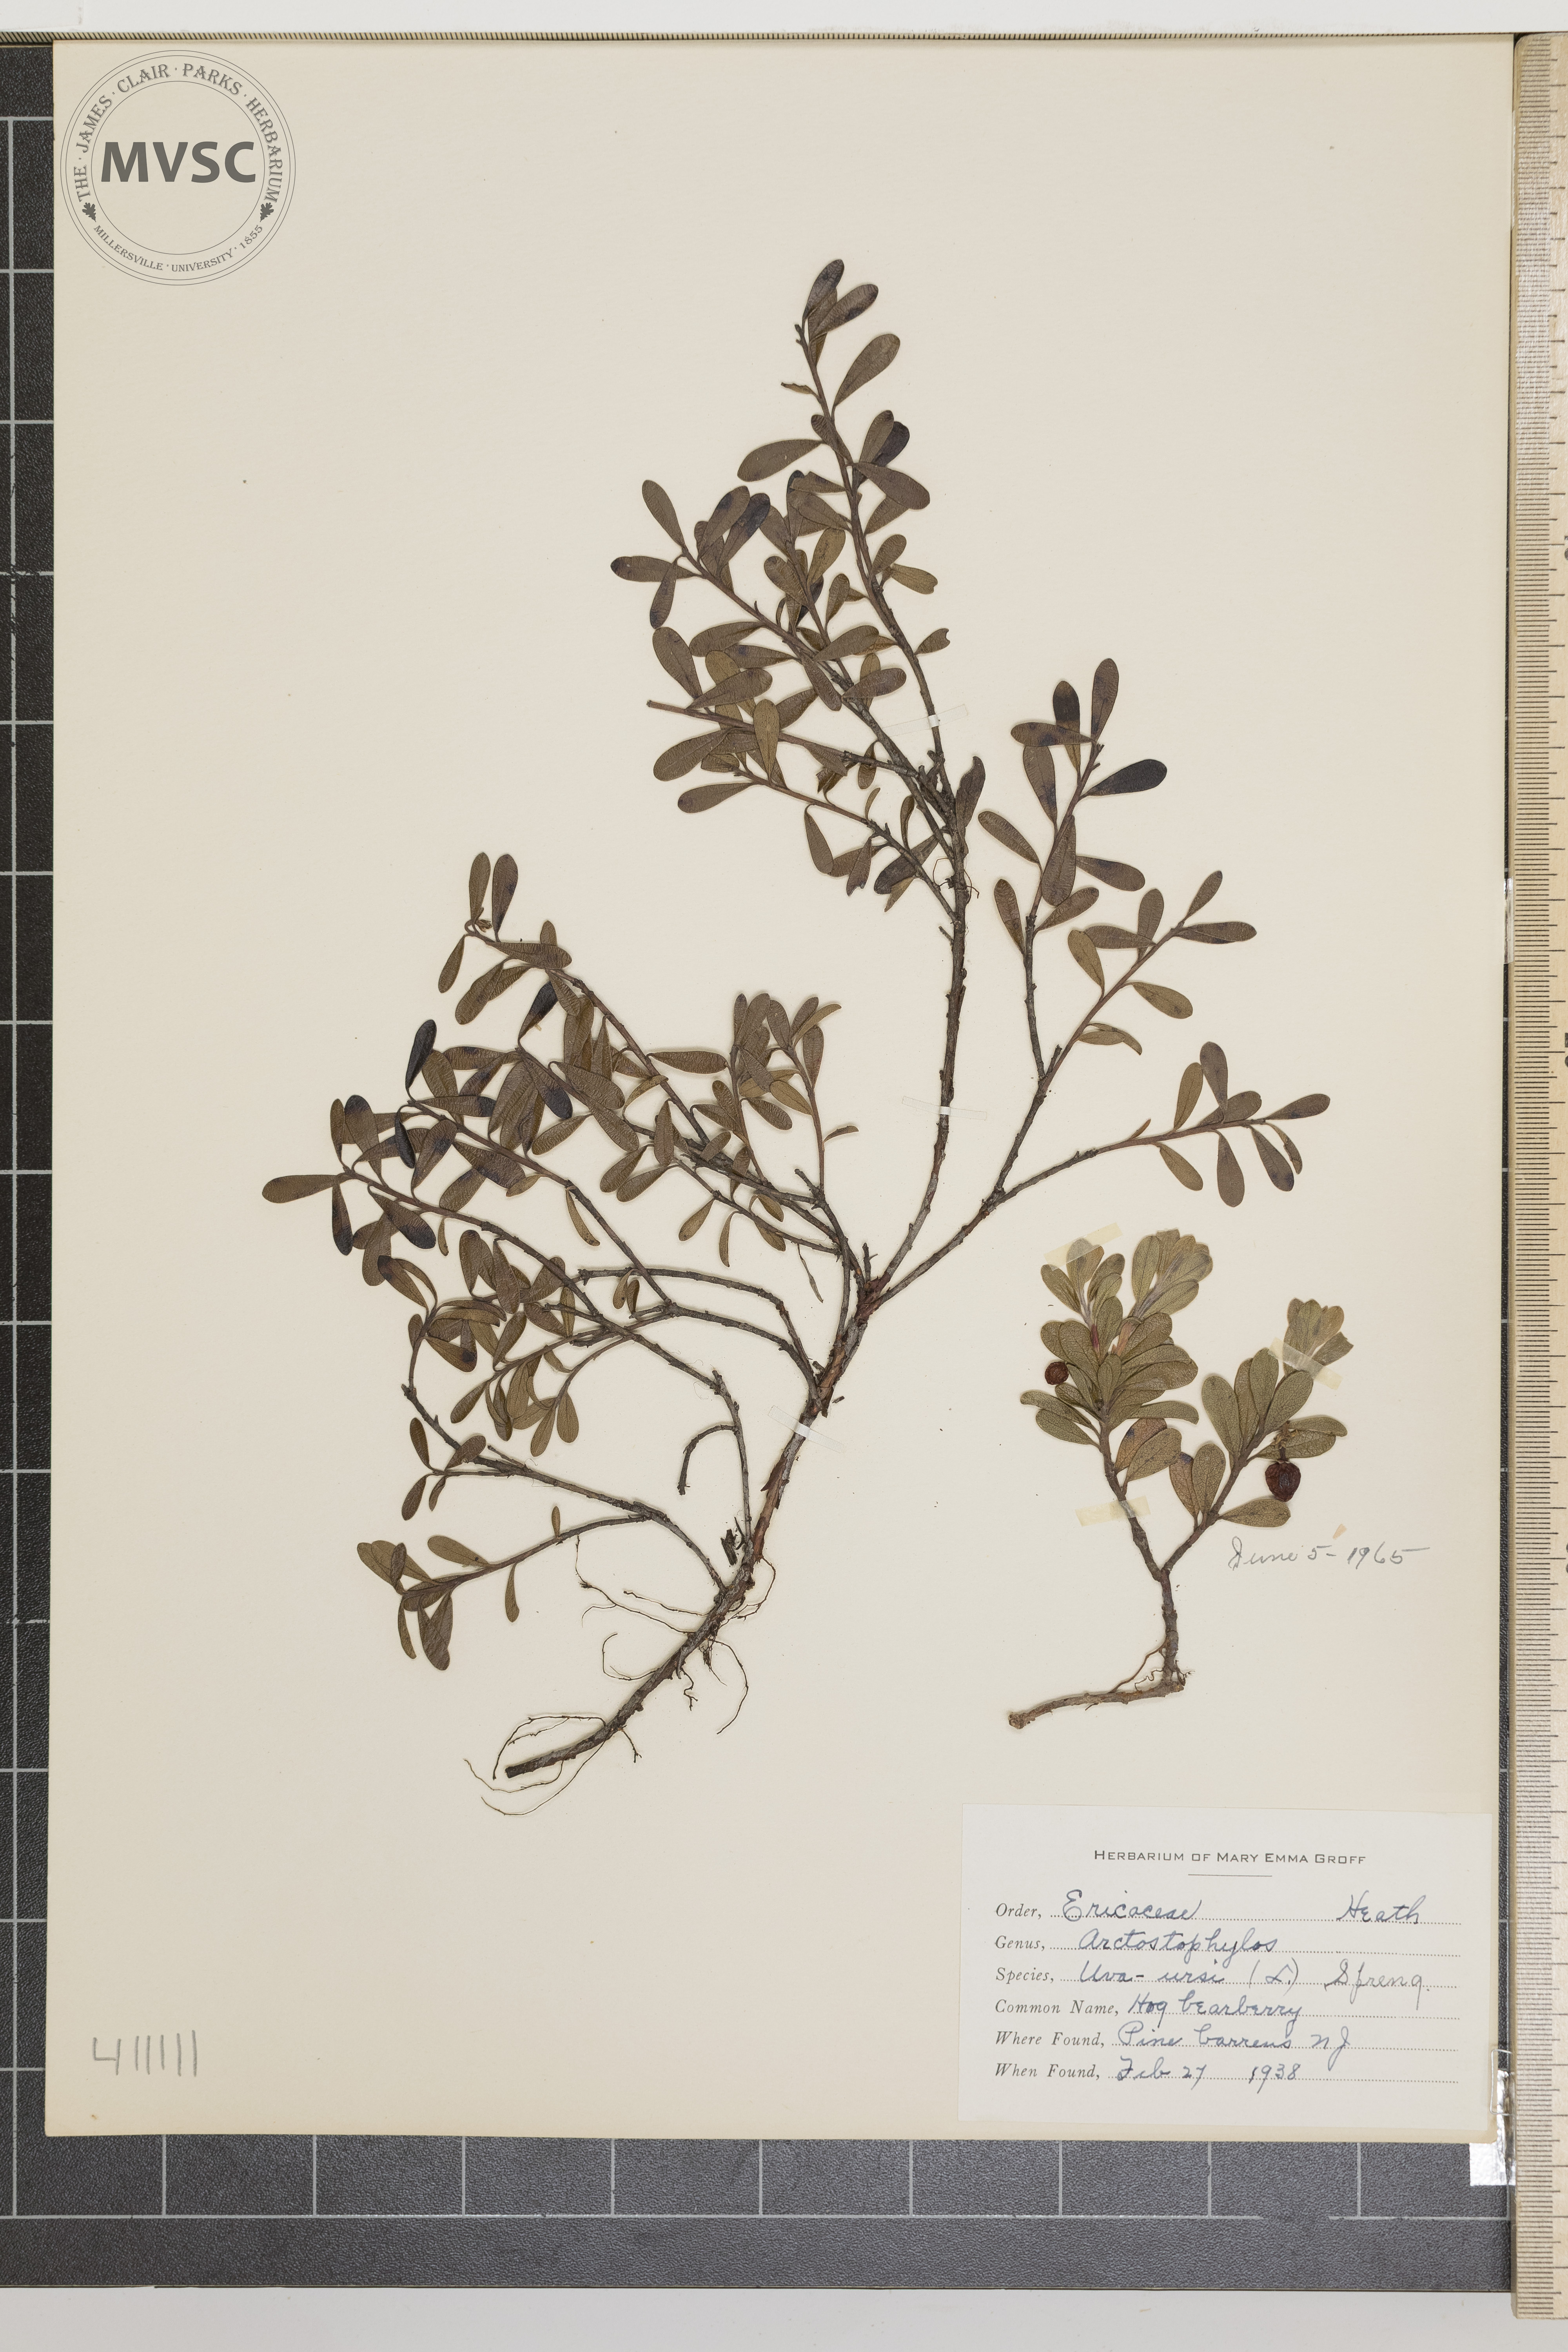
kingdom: Plantae
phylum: Tracheophyta
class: Magnoliopsida
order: Ericales
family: Ericaceae
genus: Arctostaphylos
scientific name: Arctostaphylos uva-ursi
